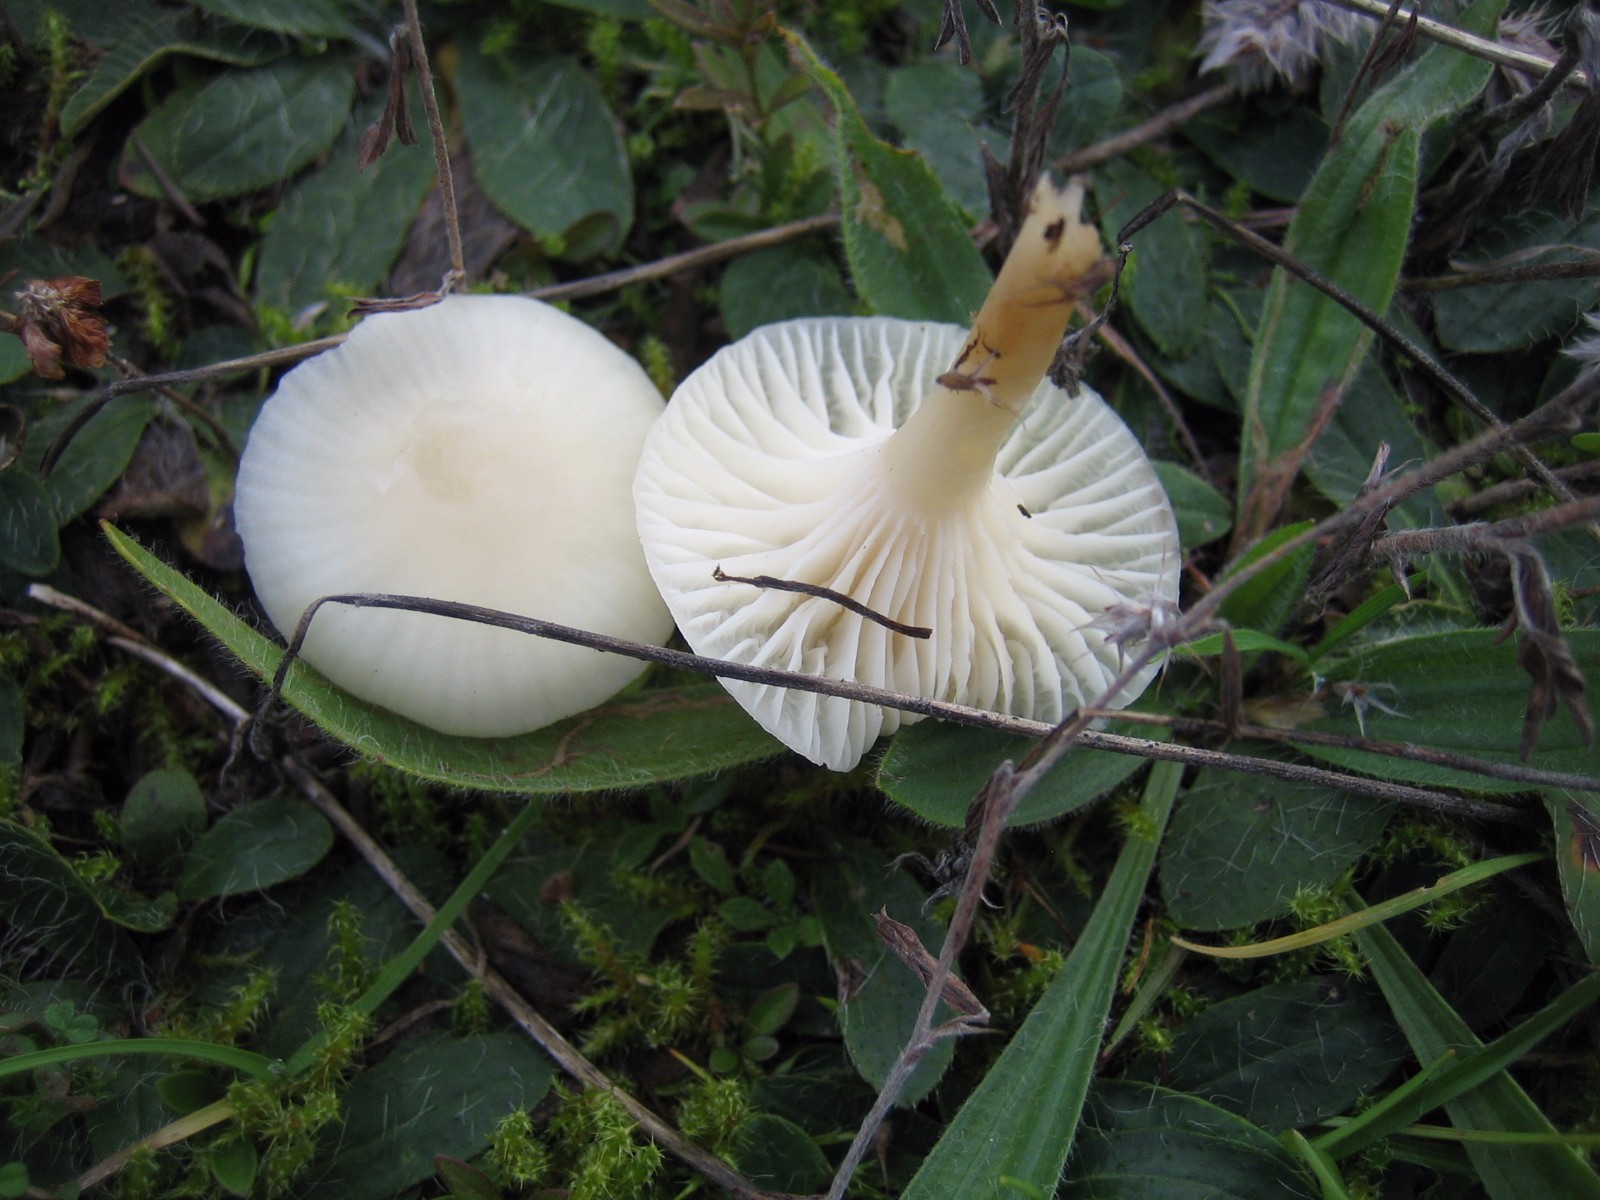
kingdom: Fungi
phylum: Basidiomycota
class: Agaricomycetes
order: Agaricales
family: Hygrophoraceae
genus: Cuphophyllus
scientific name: Cuphophyllus virgineus
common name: snehvid vokshat
